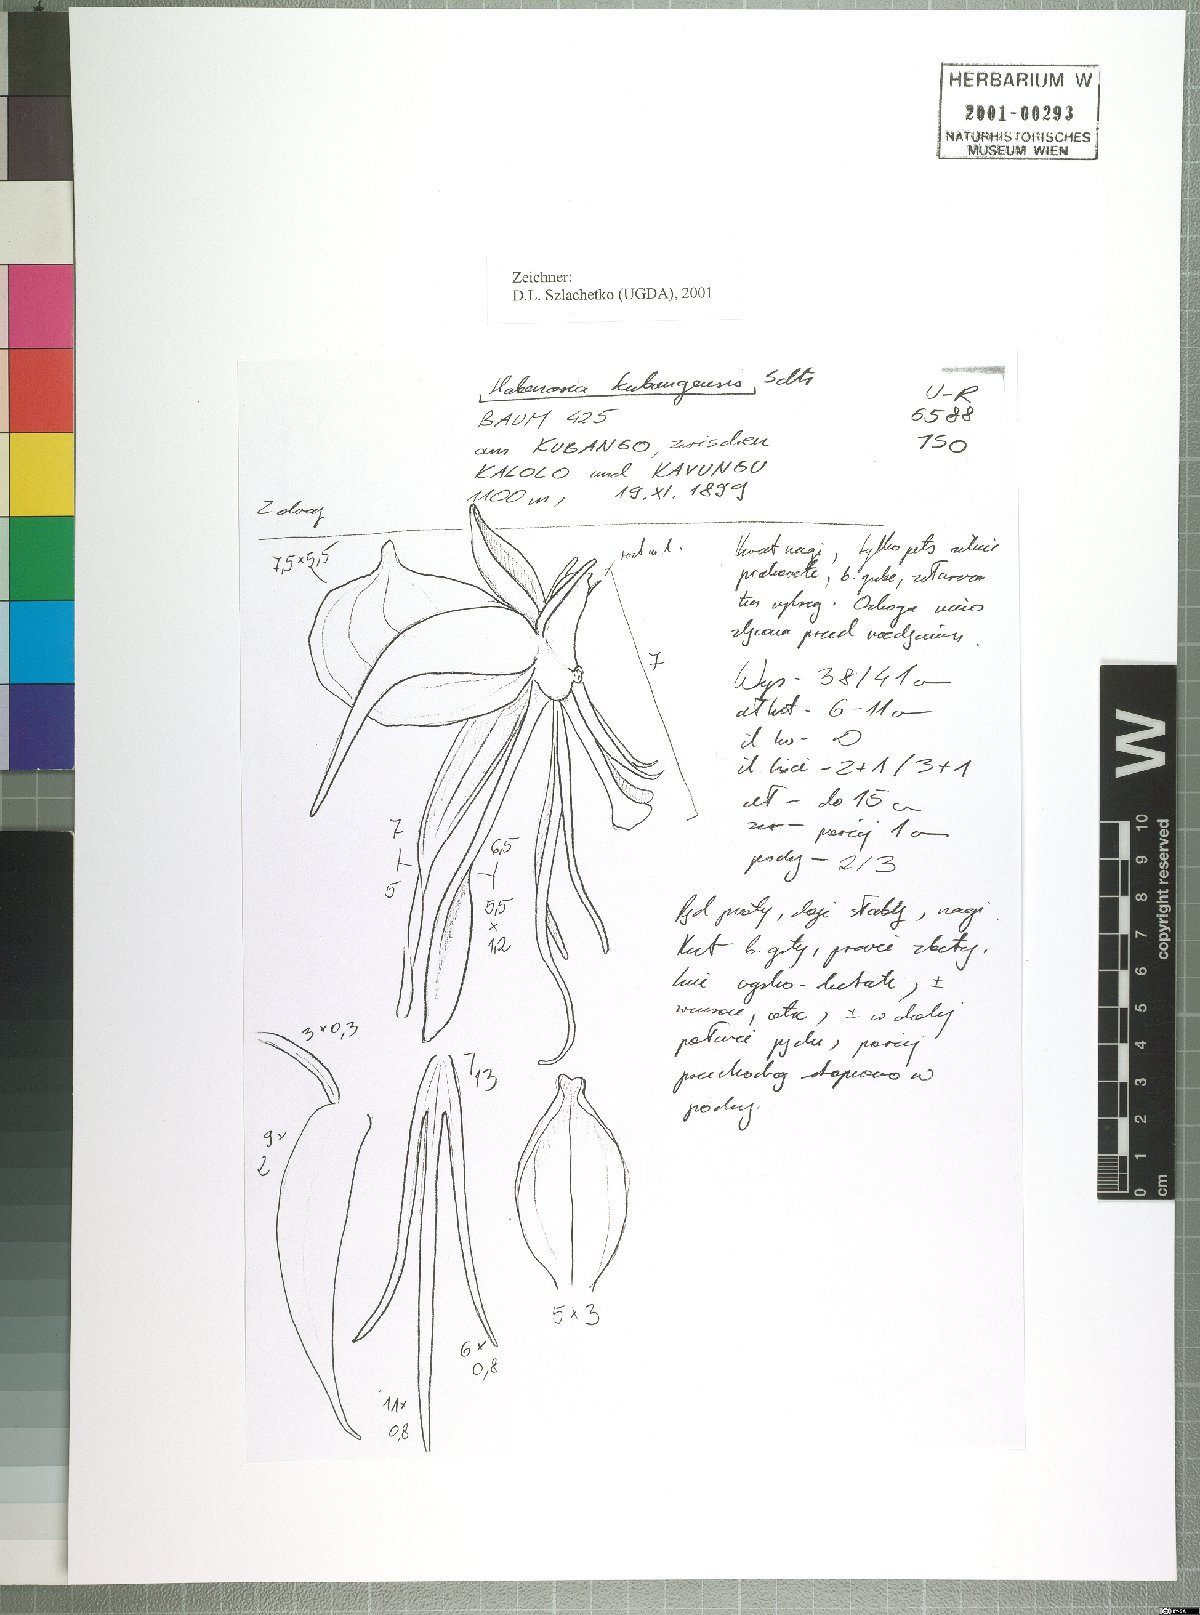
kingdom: Plantae
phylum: Tracheophyta
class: Liliopsida
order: Asparagales
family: Orchidaceae
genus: Habenaria
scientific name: Habenaria huillensis
